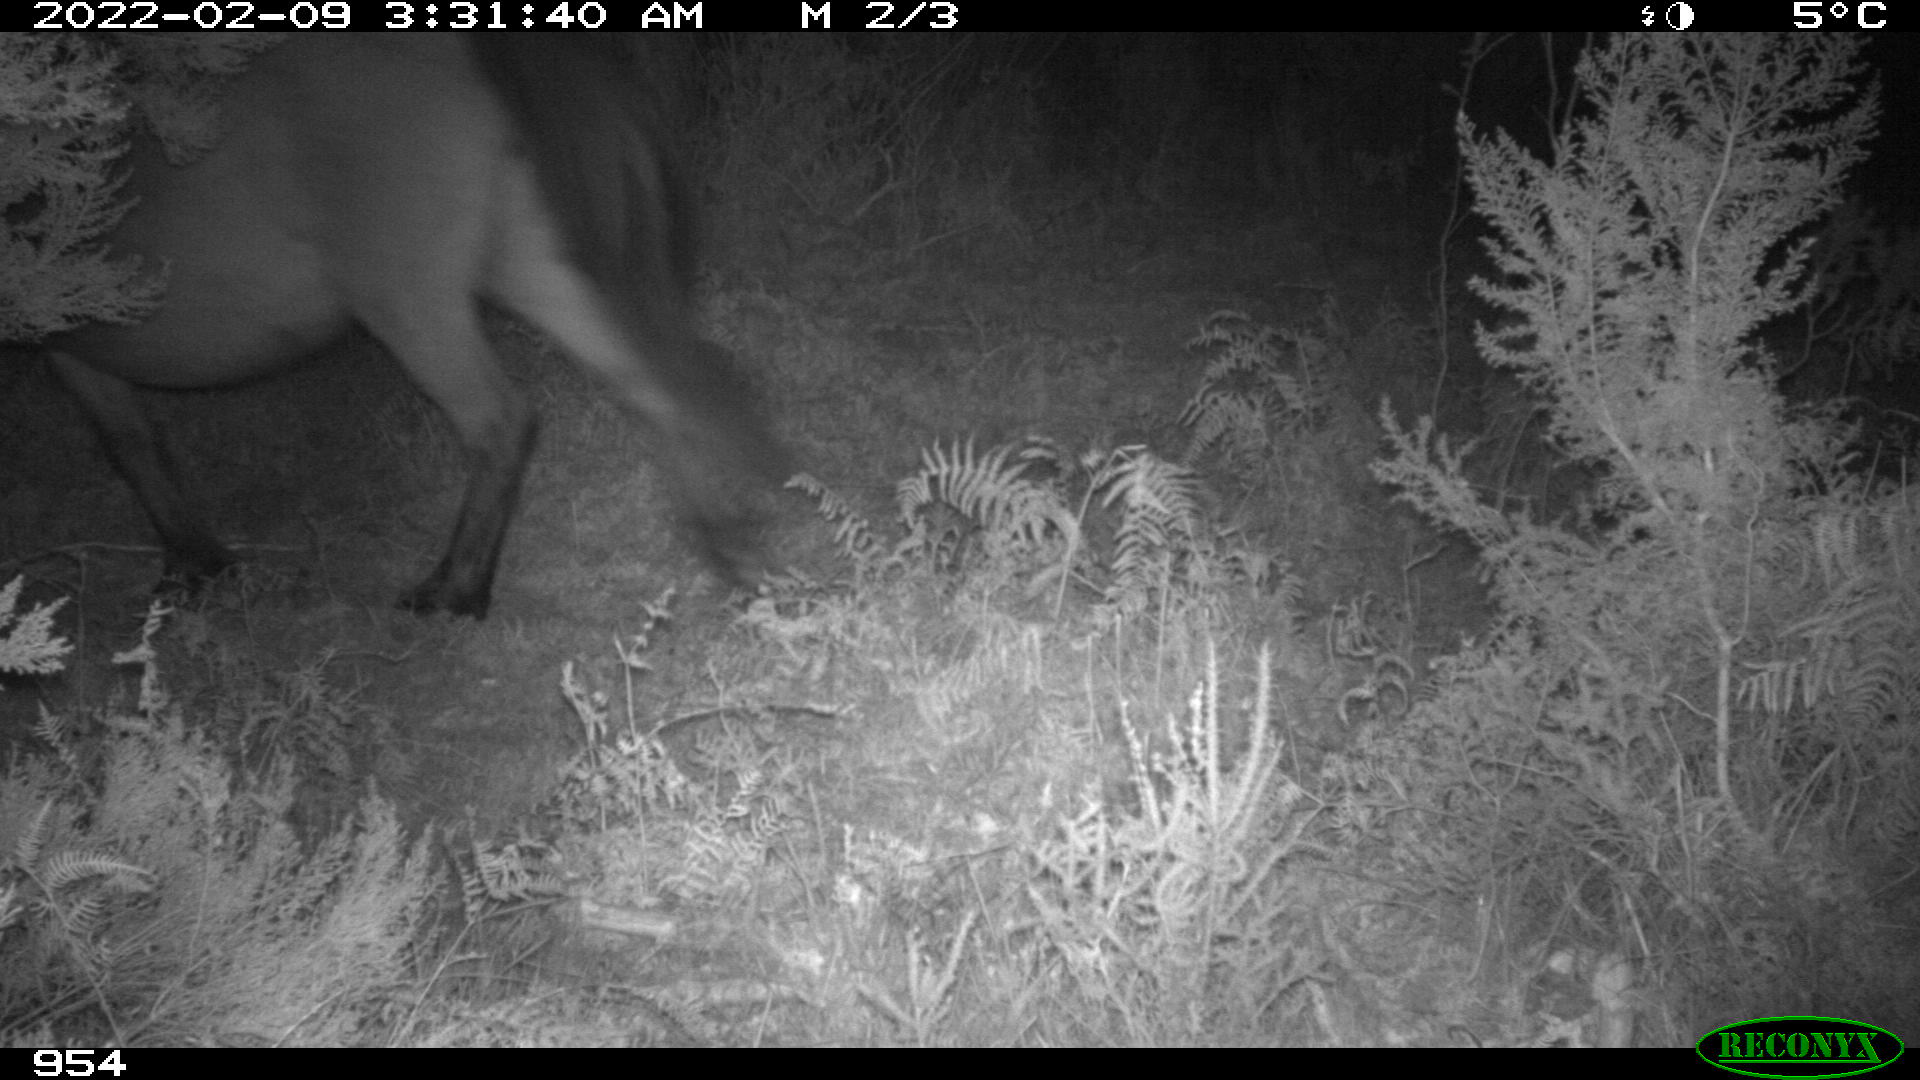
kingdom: Animalia
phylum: Chordata
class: Mammalia
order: Perissodactyla
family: Equidae
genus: Equus
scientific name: Equus caballus
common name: Horse
